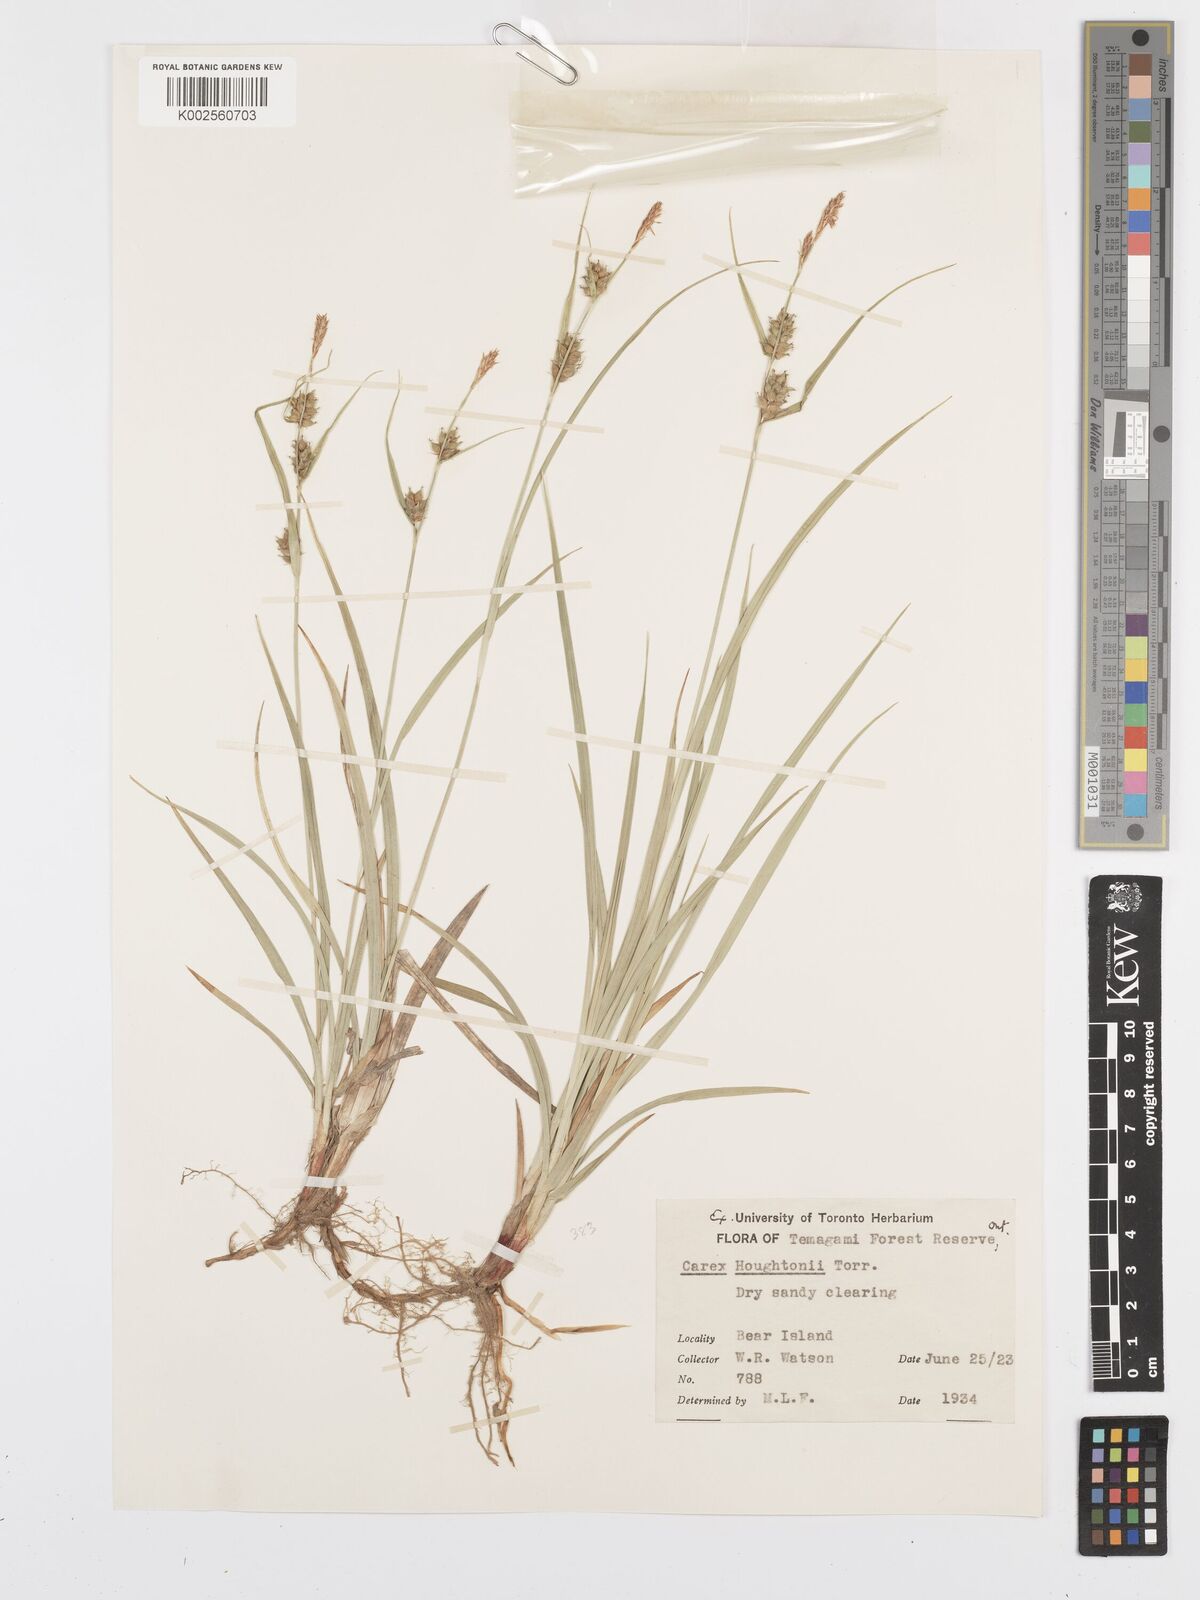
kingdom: Plantae
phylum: Tracheophyta
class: Liliopsida
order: Poales
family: Cyperaceae
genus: Carex
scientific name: Carex houghtoniana
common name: Houghton's sedge
